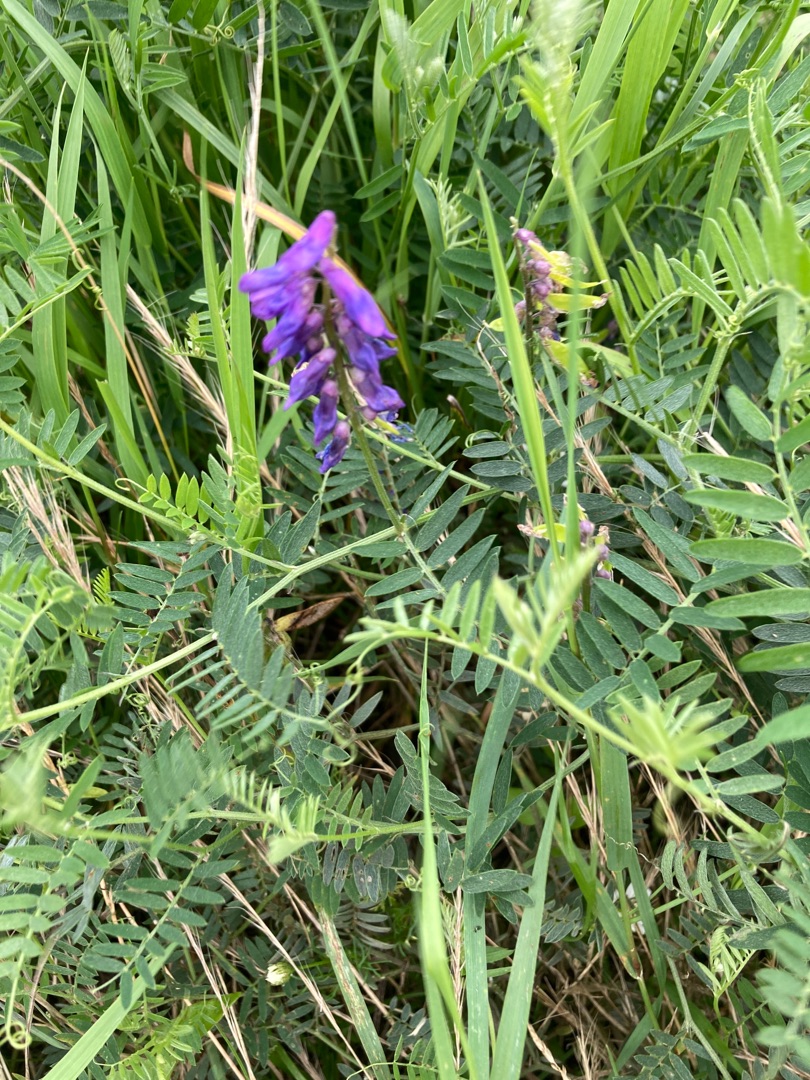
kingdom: Plantae
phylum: Tracheophyta
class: Magnoliopsida
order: Fabales
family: Fabaceae
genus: Vicia
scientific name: Vicia cracca
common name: Muse-vikke
